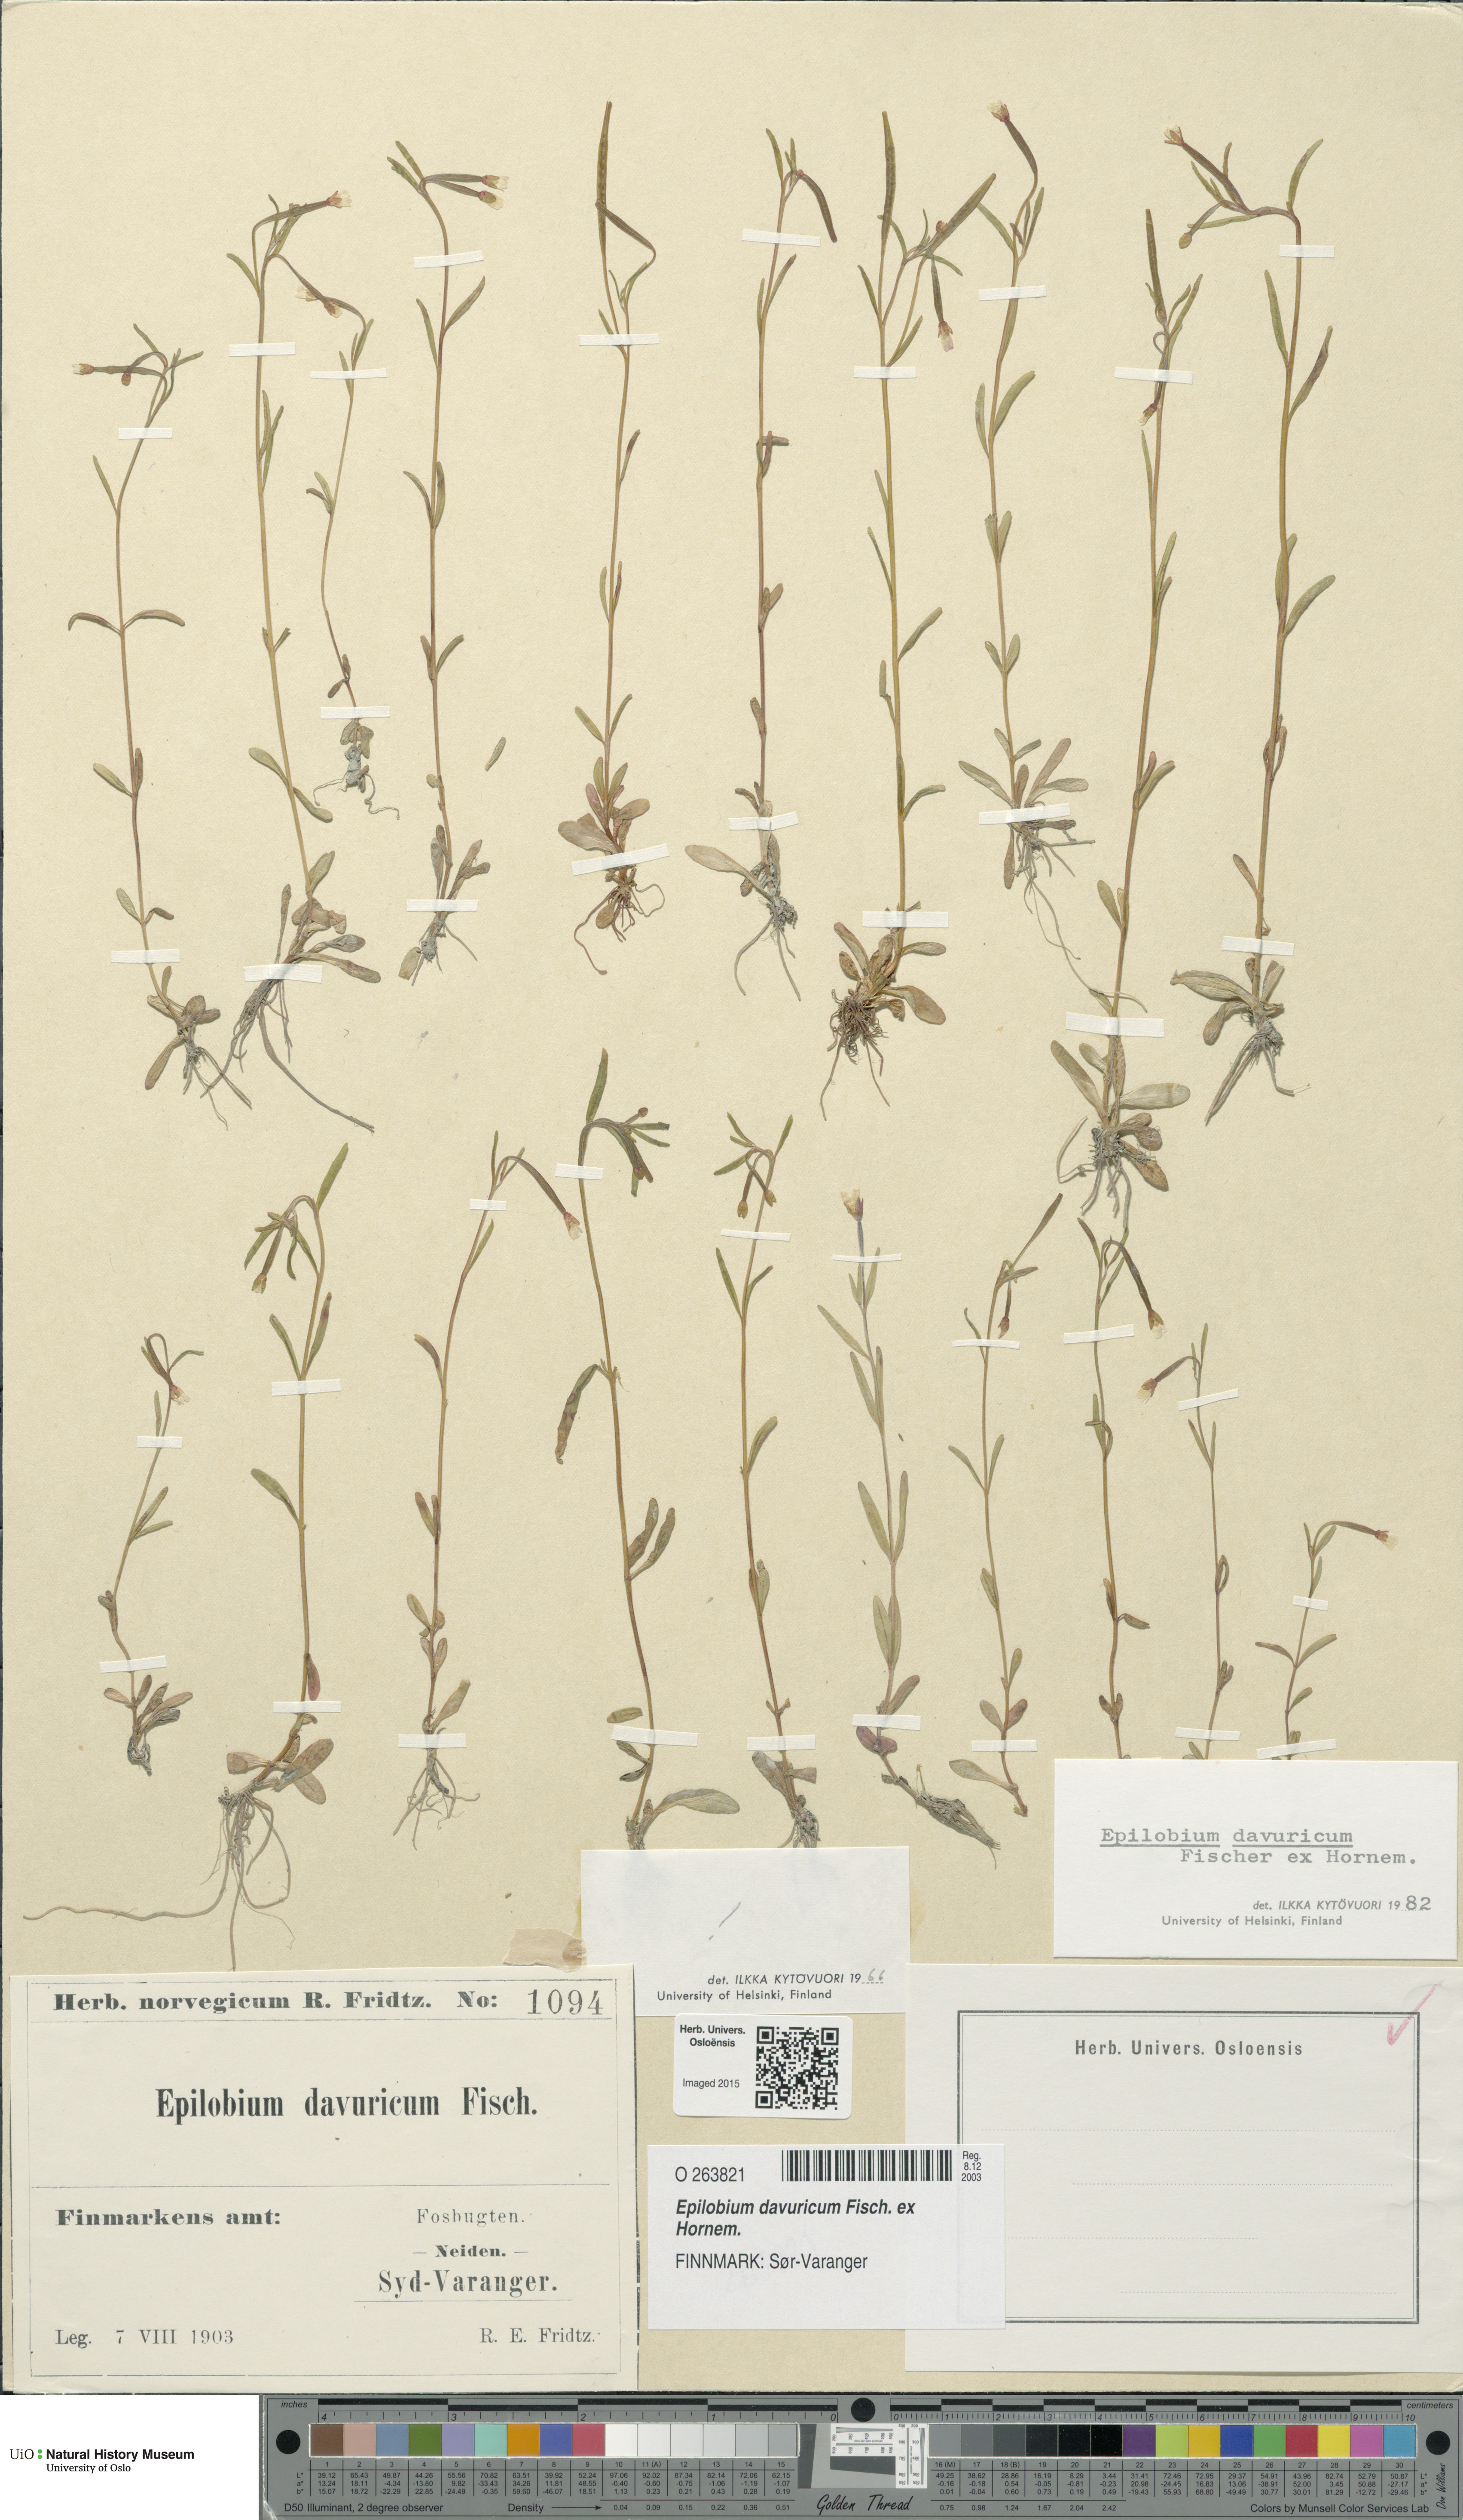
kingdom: Plantae
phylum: Tracheophyta
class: Magnoliopsida
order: Myrtales
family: Onagraceae
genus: Epilobium
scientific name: Epilobium davuricum
